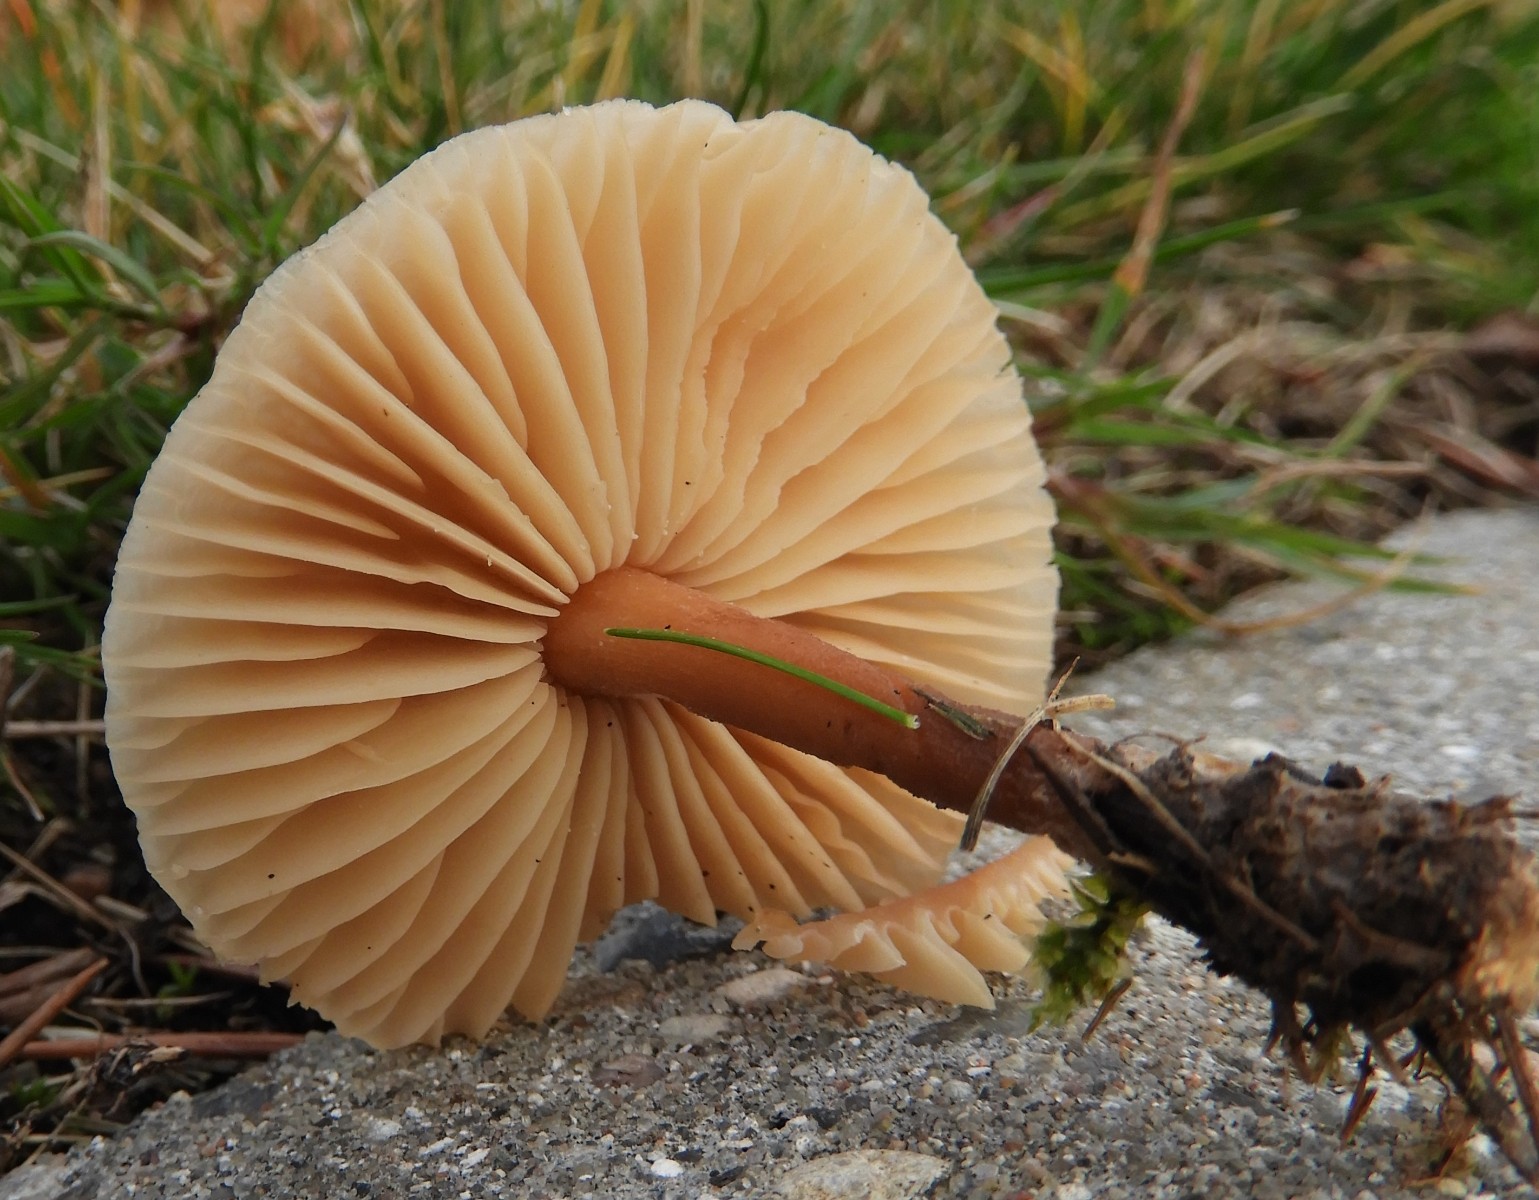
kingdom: Fungi
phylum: Basidiomycota
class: Agaricomycetes
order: Agaricales
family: Marasmiaceae
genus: Marasmius
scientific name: Marasmius oreades
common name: elledans-bruskhat
